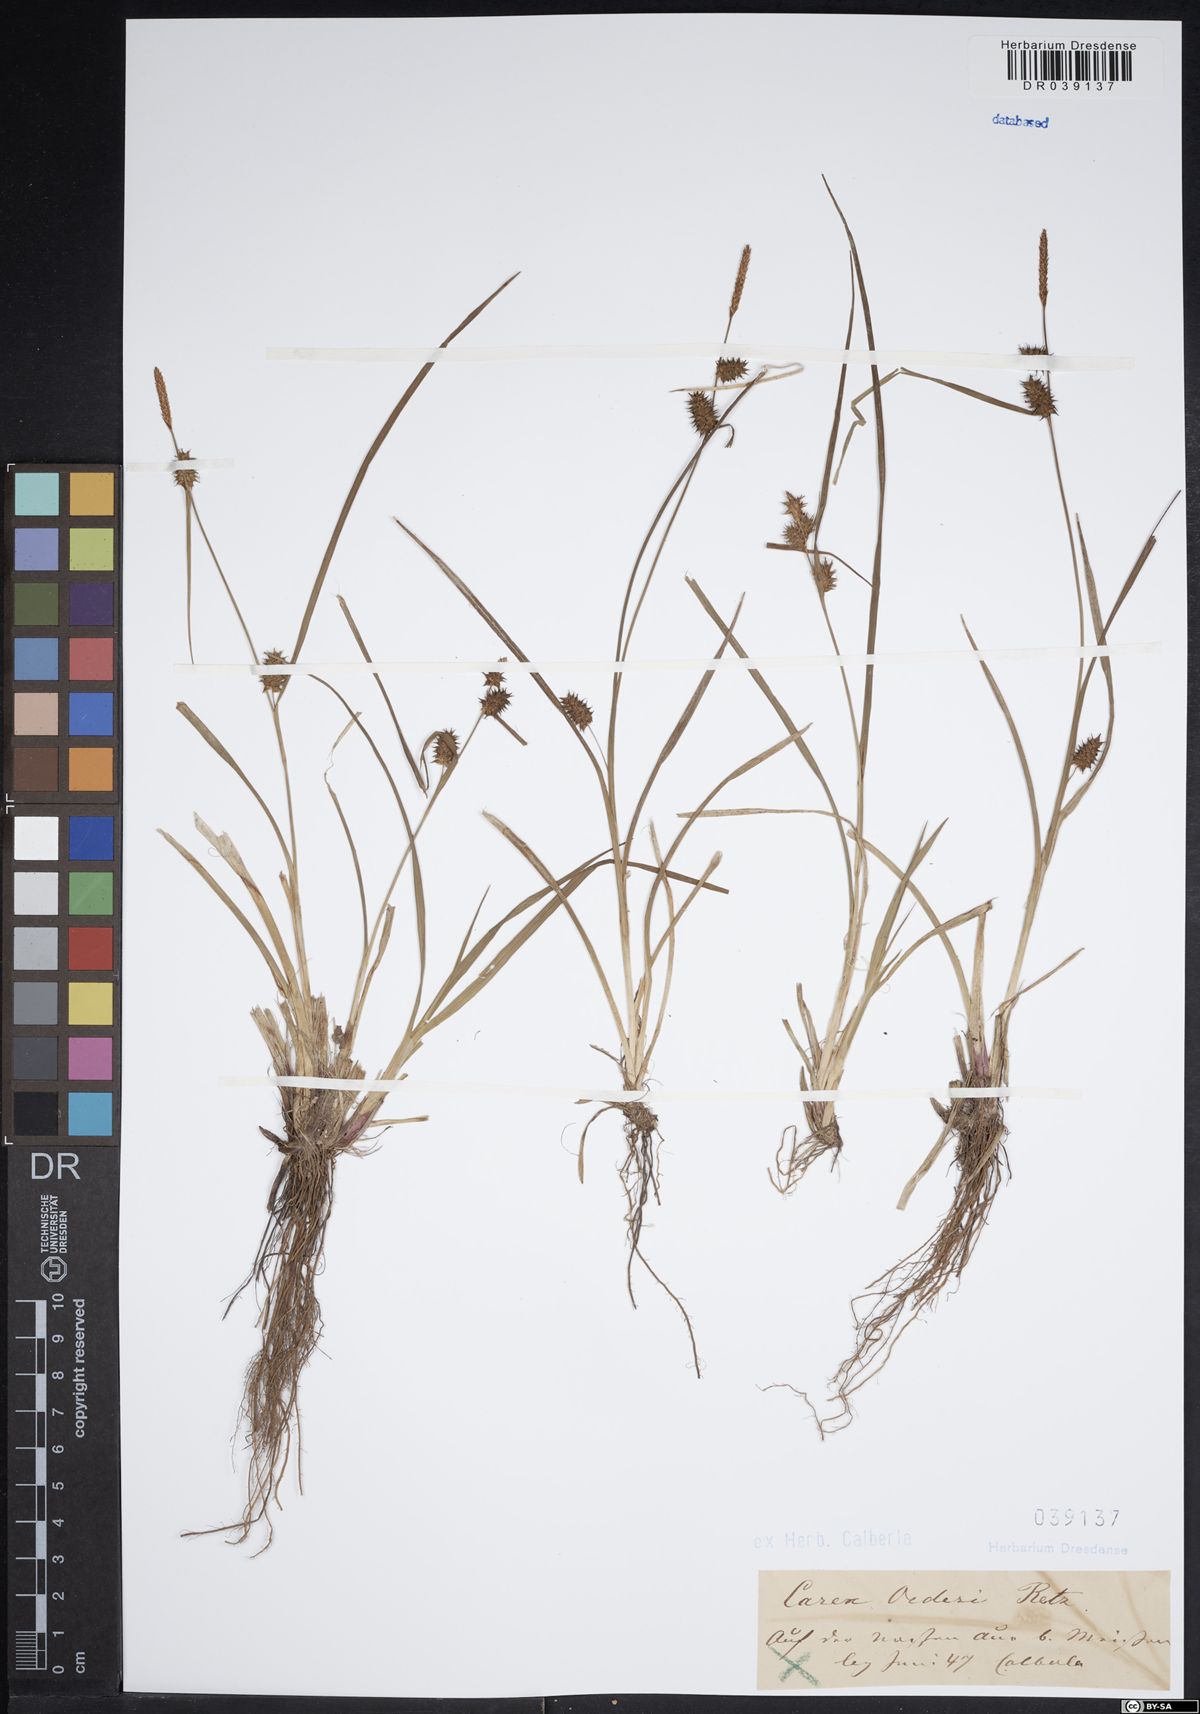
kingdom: Plantae
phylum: Tracheophyta
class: Liliopsida
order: Poales
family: Cyperaceae
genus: Carex
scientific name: Carex oederi
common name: Common & small-fruited yellow-sedge
